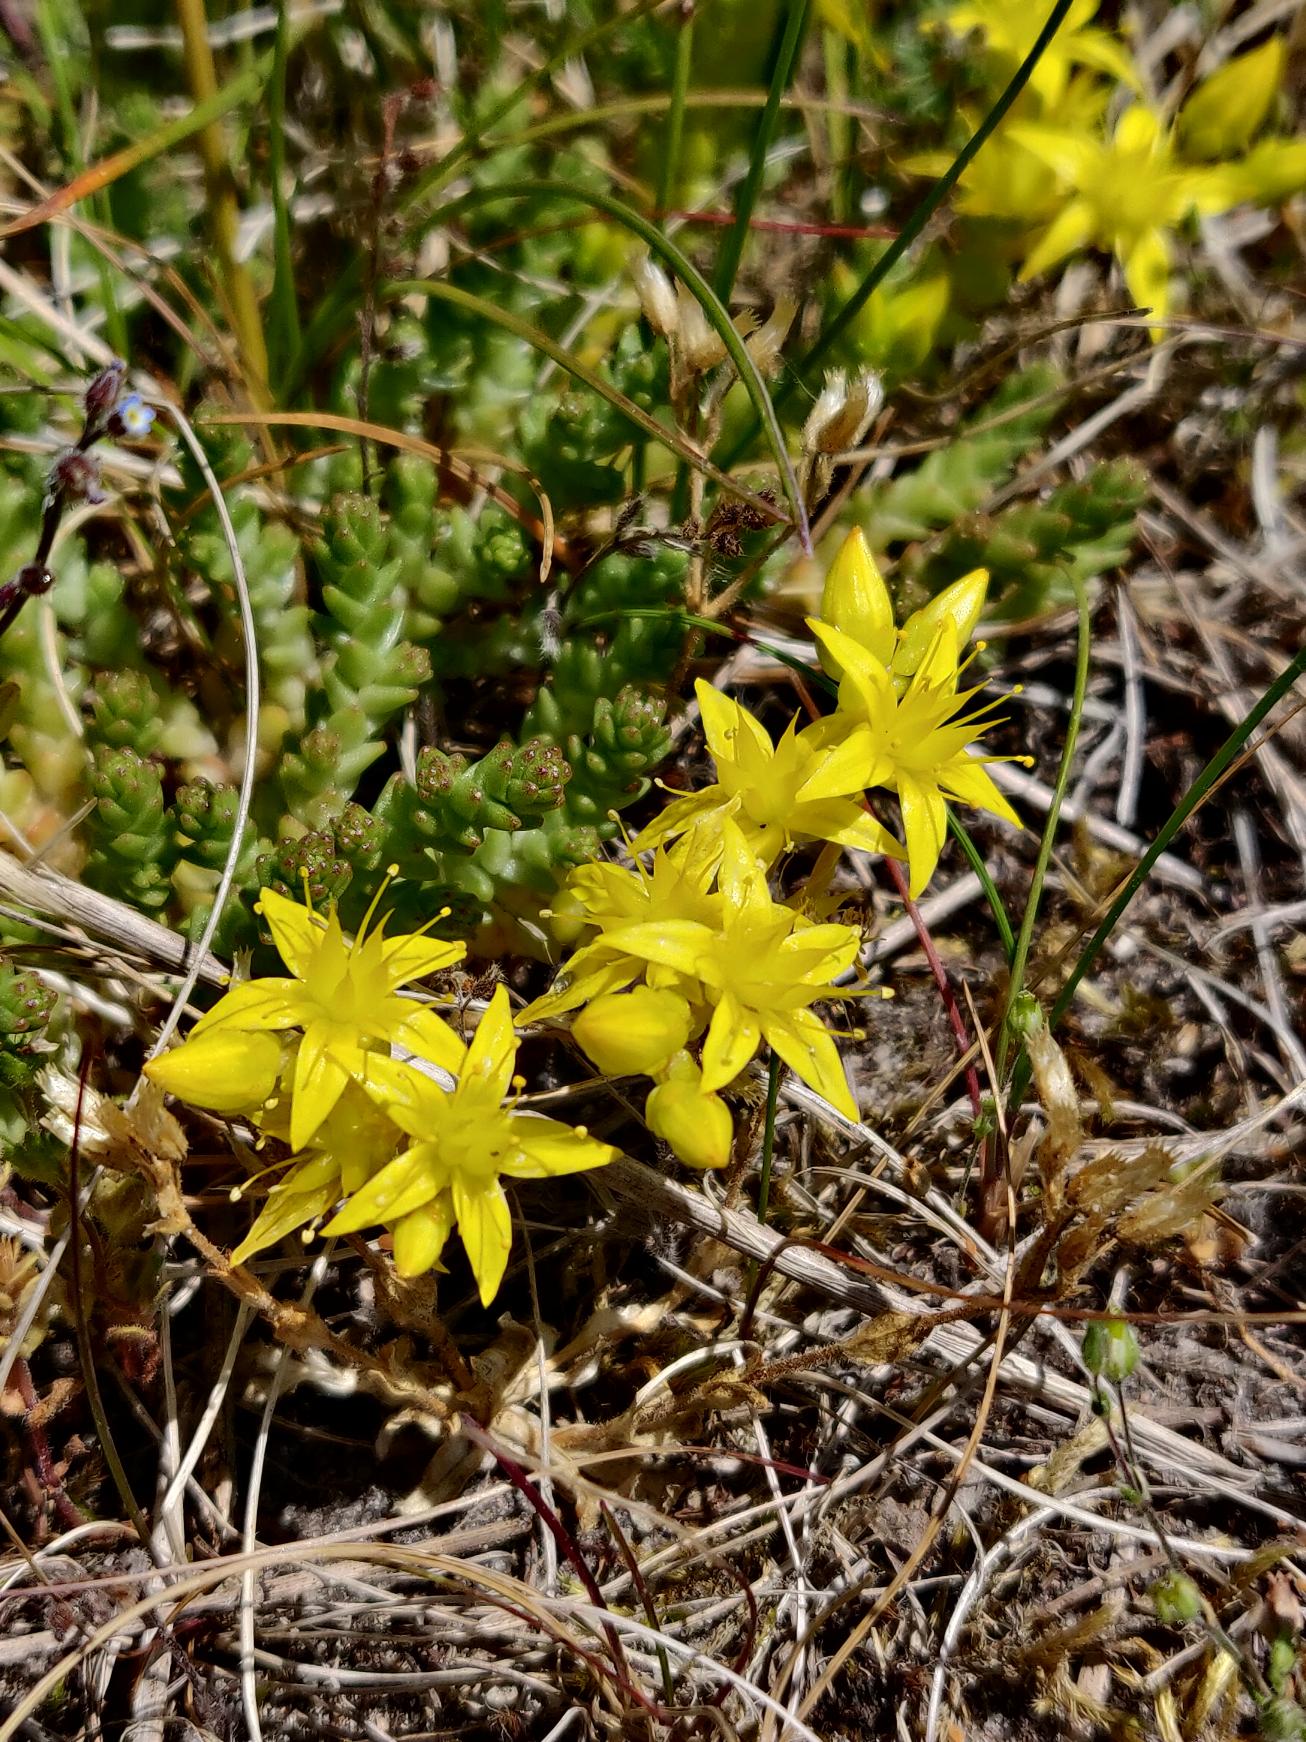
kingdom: Plantae
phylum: Tracheophyta
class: Magnoliopsida
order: Saxifragales
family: Crassulaceae
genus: Sedum
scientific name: Sedum acre
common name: Bidende stenurt
